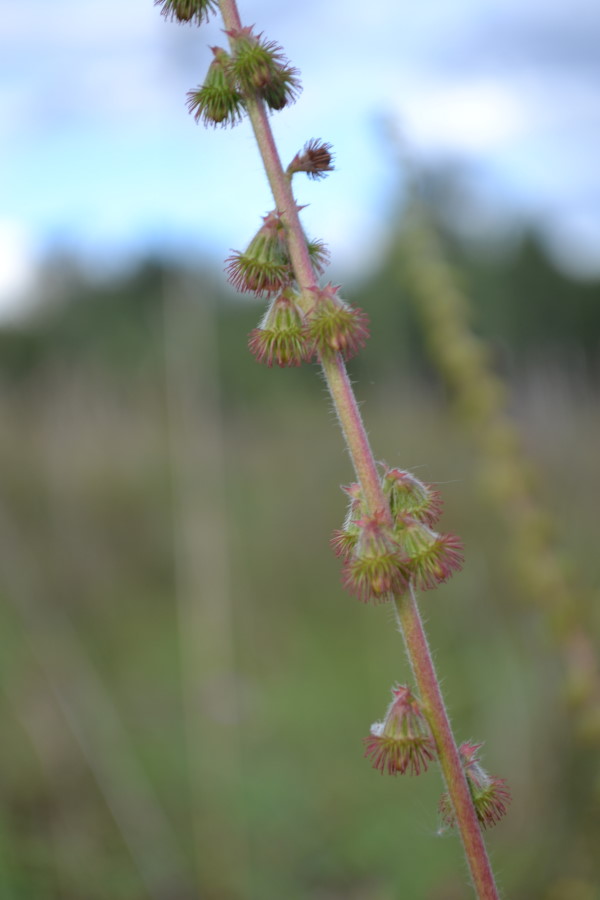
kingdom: Plantae
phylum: Tracheophyta
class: Magnoliopsida
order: Rosales
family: Rosaceae
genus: Agrimonia
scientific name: Agrimonia eupatoria
